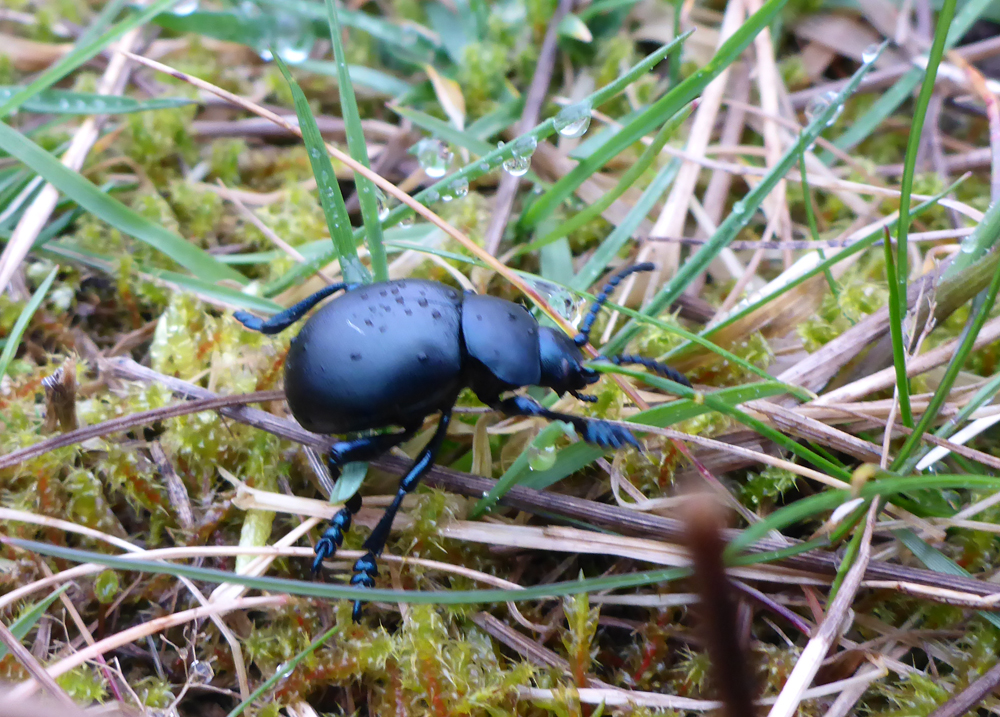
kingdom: Animalia
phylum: Arthropoda
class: Insecta
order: Coleoptera
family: Chrysomelidae
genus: Timarcha
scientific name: Timarcha tenebricosa
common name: Bloody-nosed beetle
